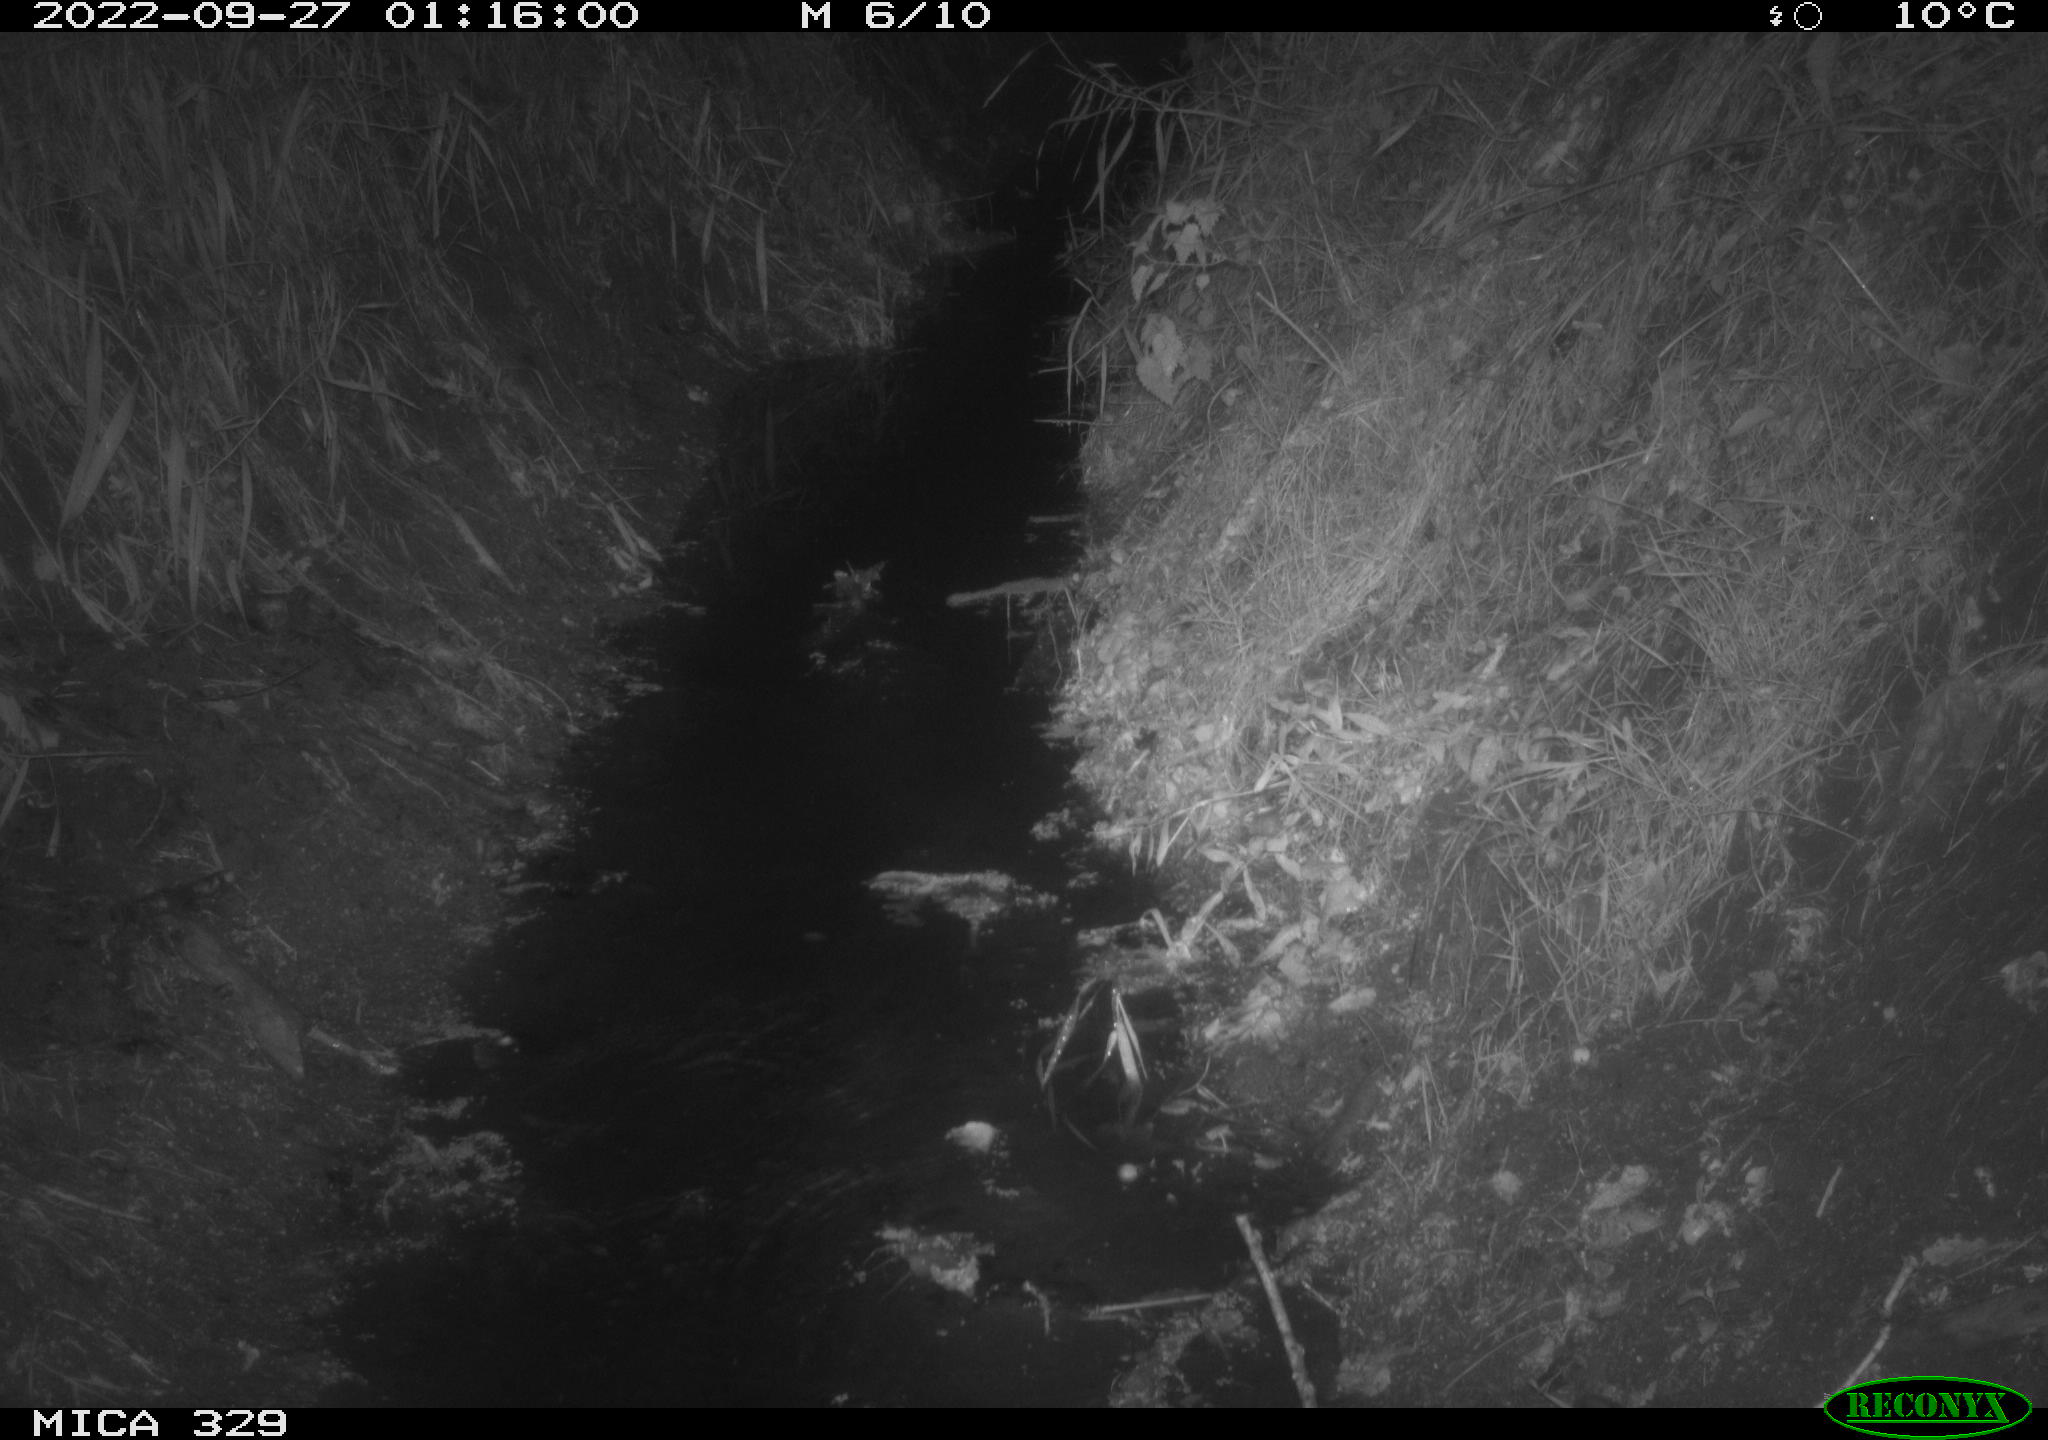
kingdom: Animalia
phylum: Chordata
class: Mammalia
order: Rodentia
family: Muridae
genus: Rattus
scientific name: Rattus norvegicus
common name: Brown rat
